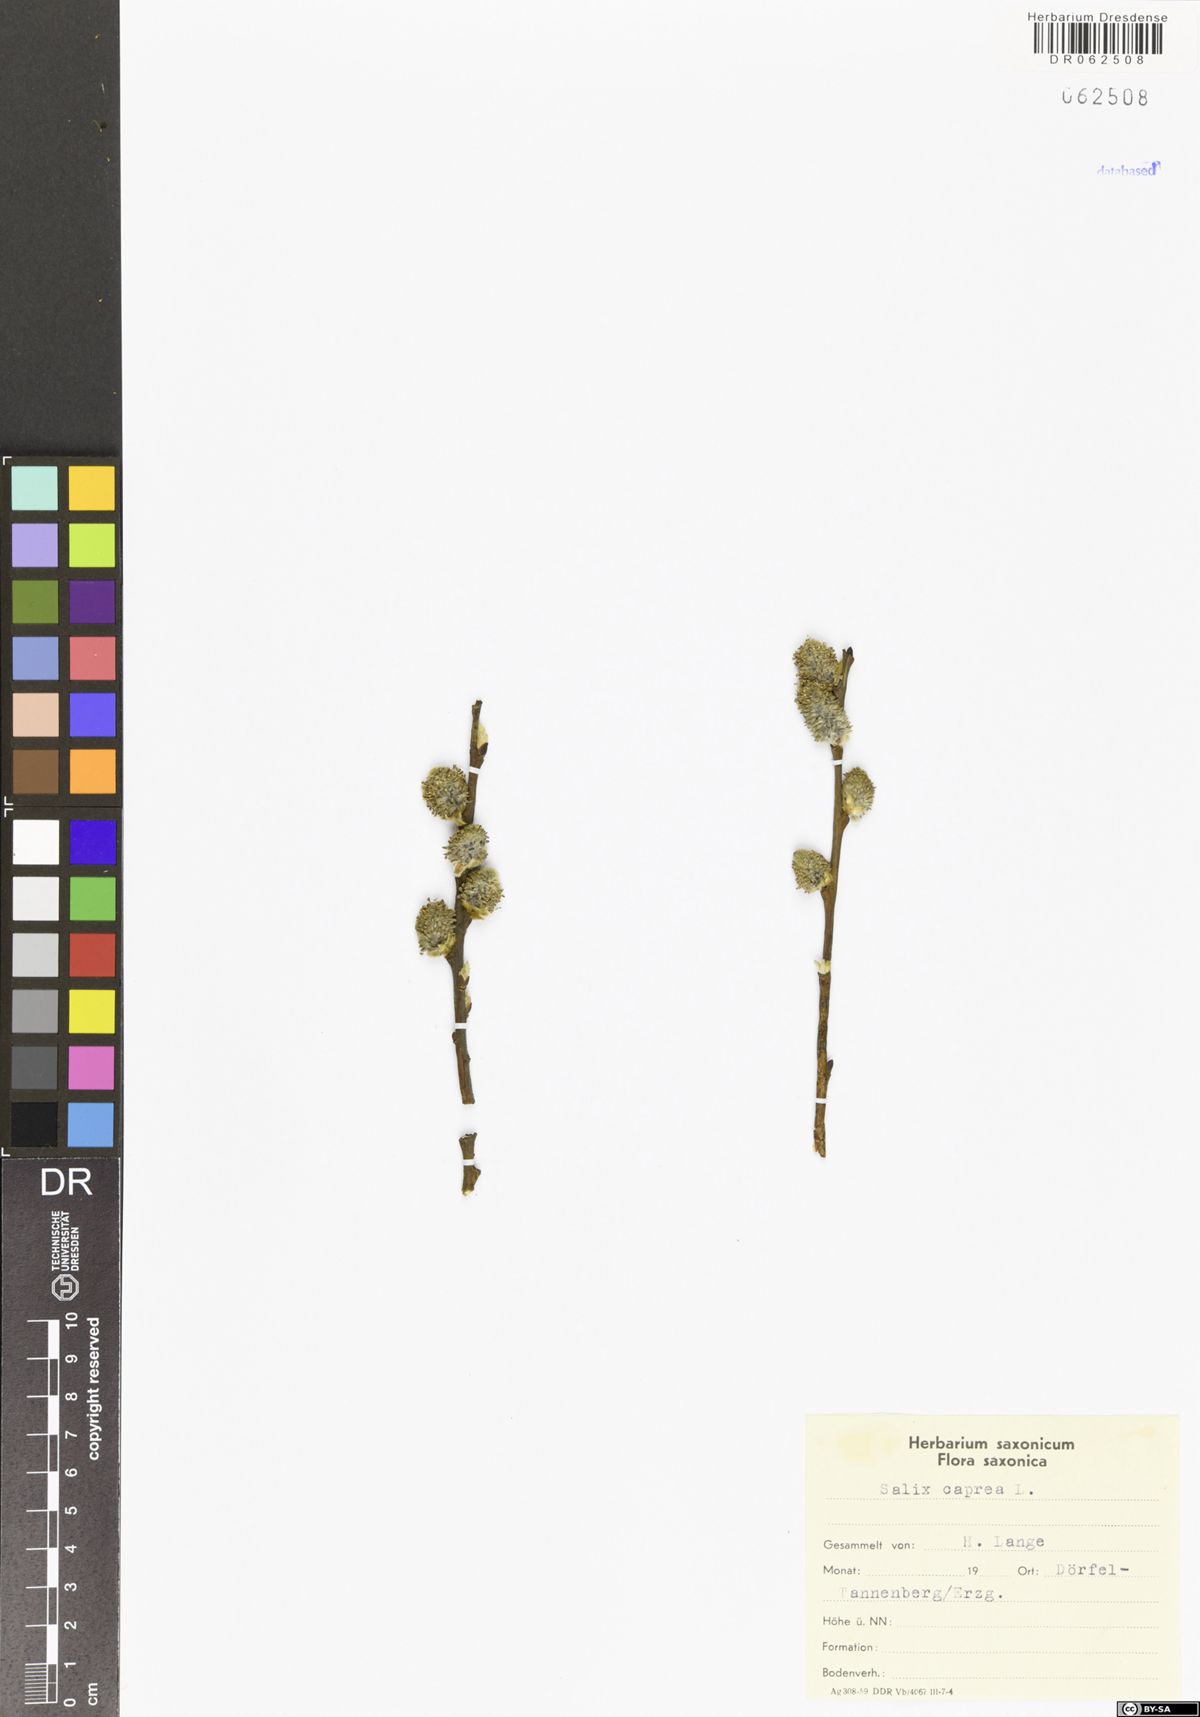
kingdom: Plantae
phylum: Tracheophyta
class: Magnoliopsida
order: Malpighiales
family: Salicaceae
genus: Salix
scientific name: Salix caprea
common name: Goat willow
